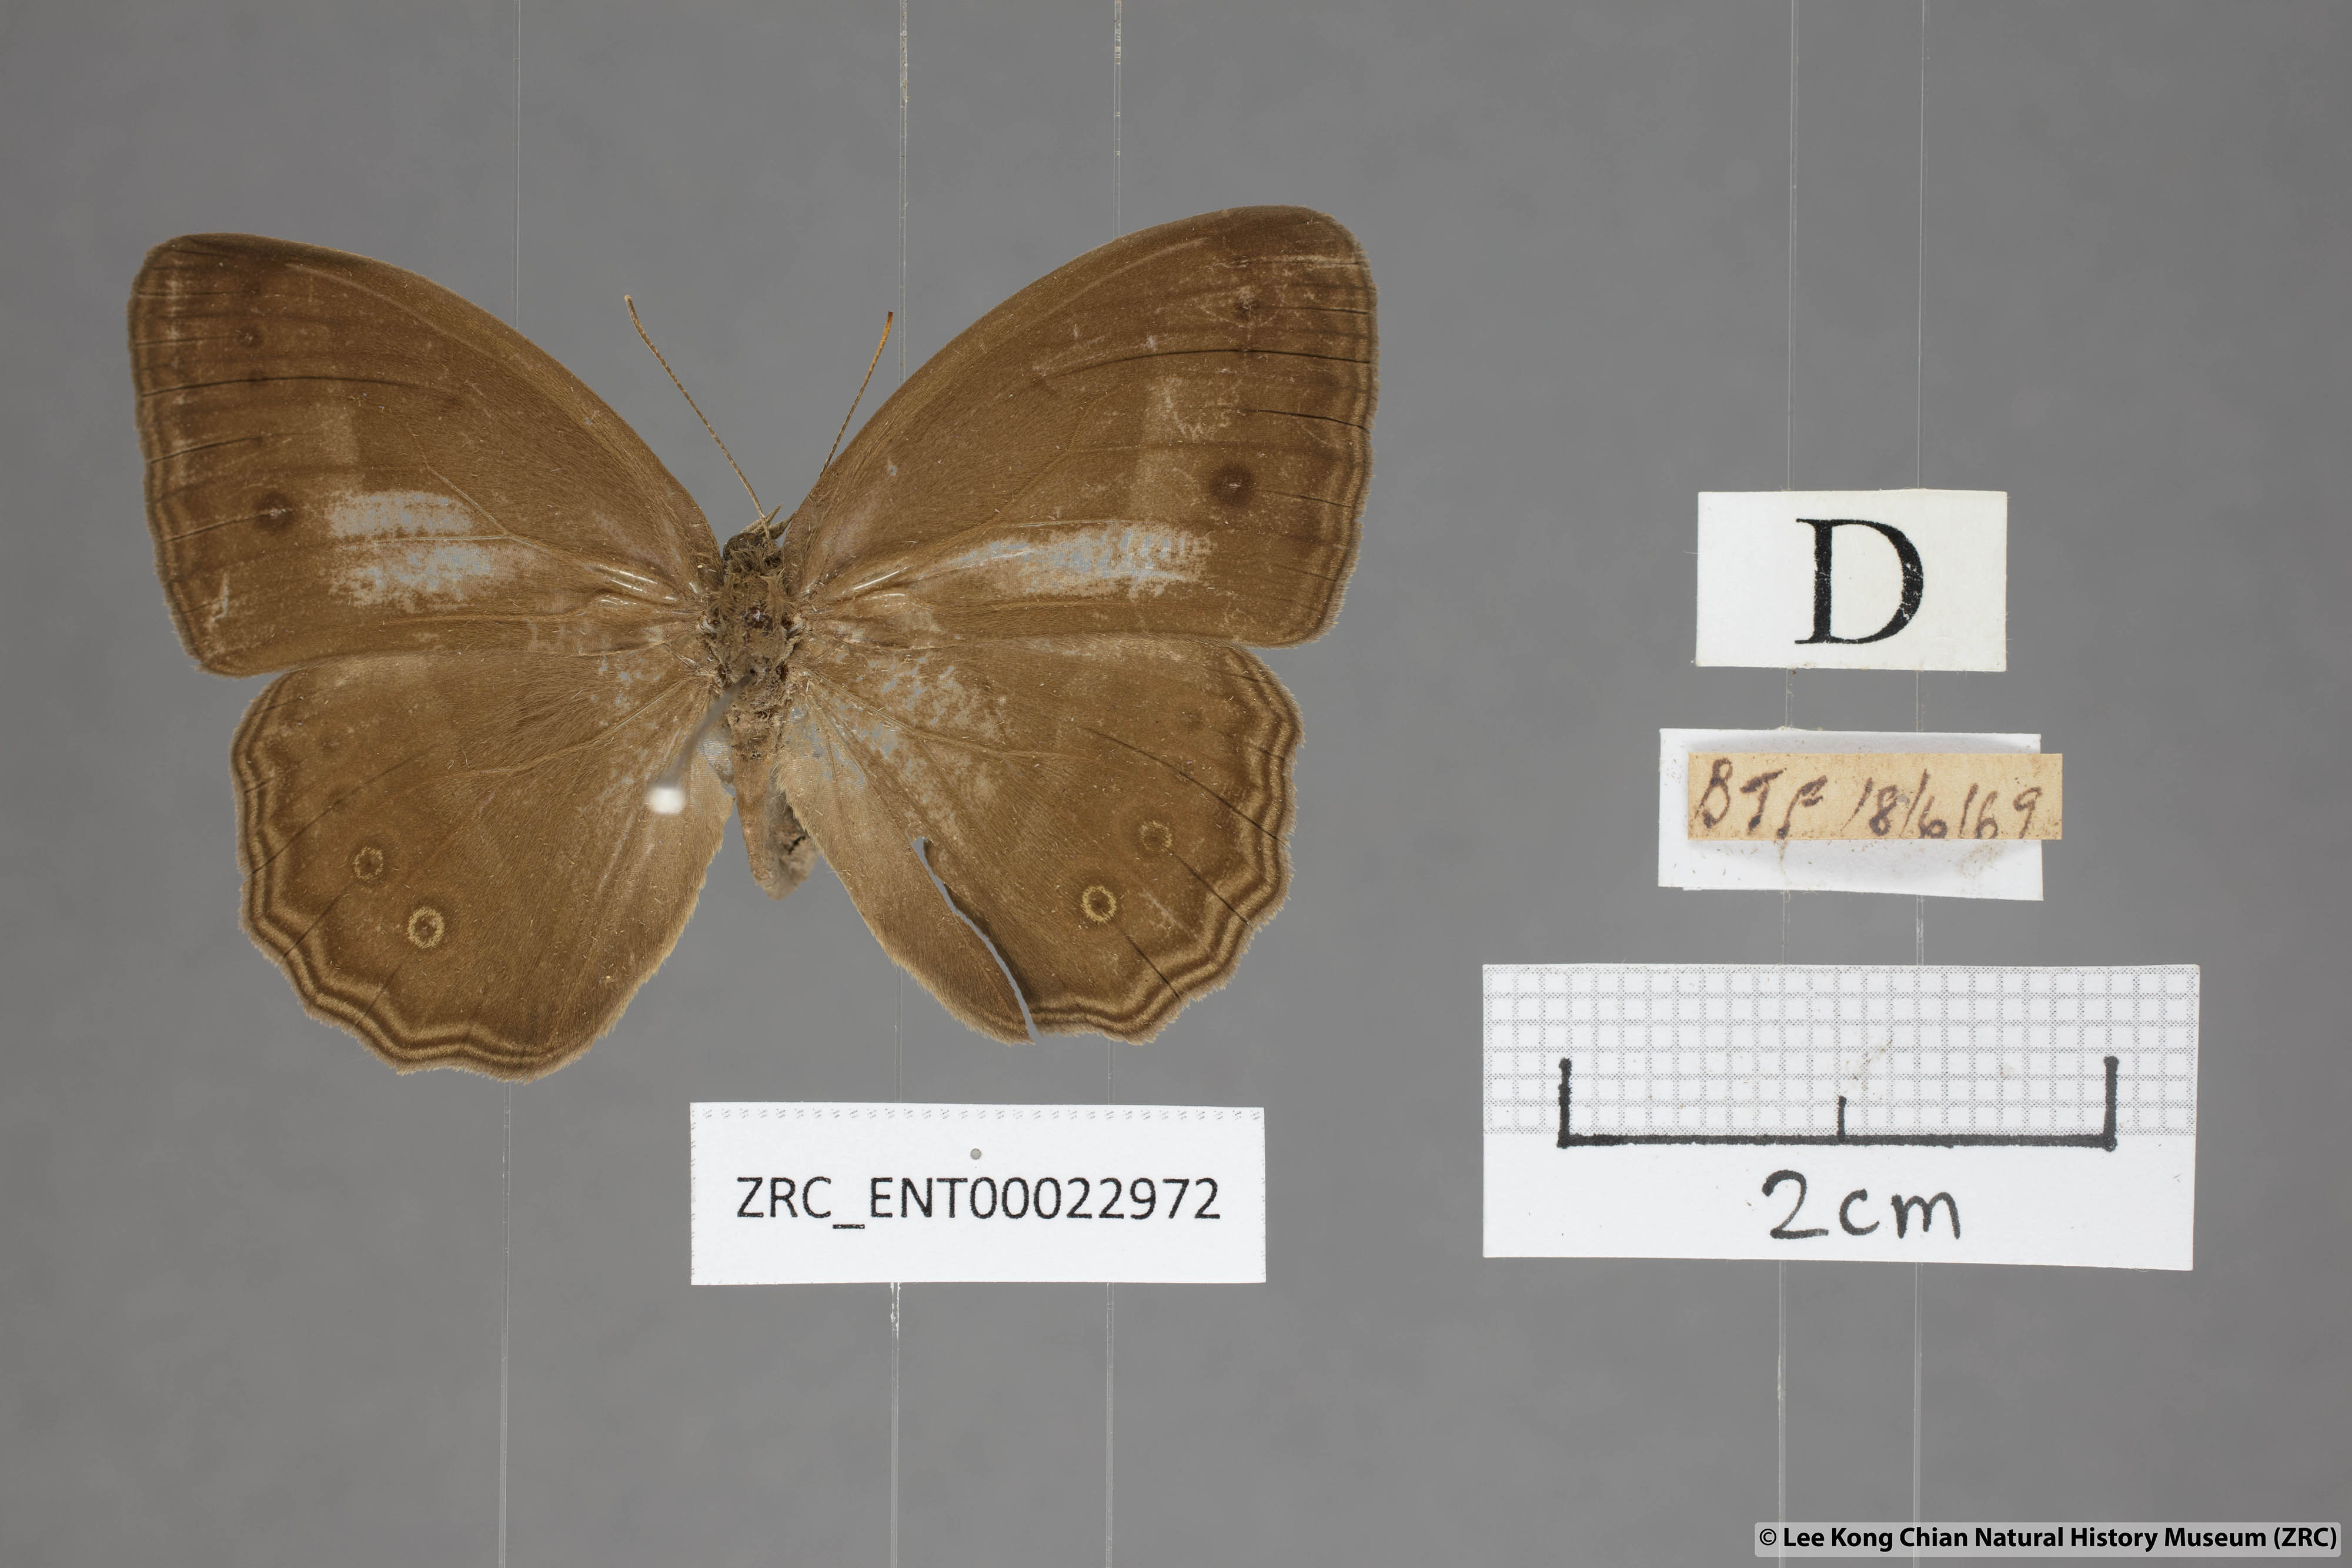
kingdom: Animalia
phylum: Arthropoda
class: Insecta
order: Lepidoptera
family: Nymphalidae
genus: Mycalesis
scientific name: Mycalesis orseis
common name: Purple bushbrown
